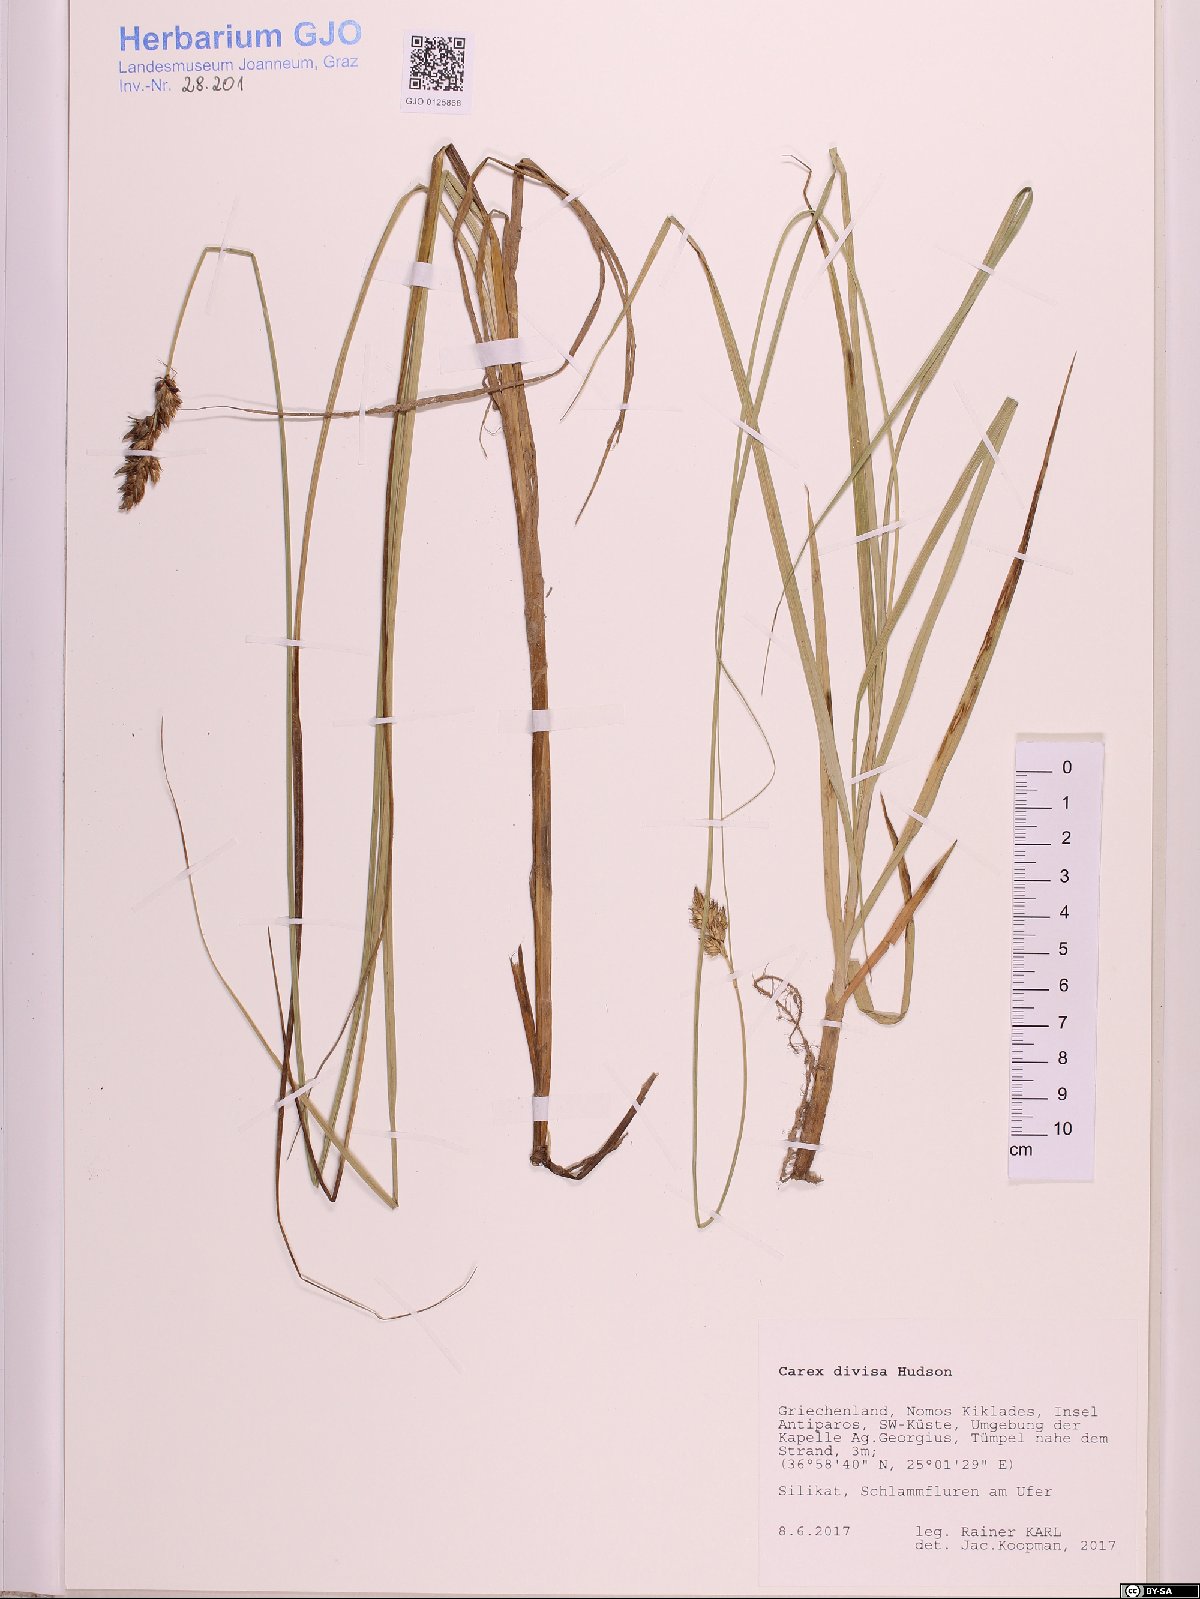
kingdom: Plantae
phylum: Tracheophyta
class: Liliopsida
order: Poales
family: Cyperaceae
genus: Carex
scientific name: Carex divisa
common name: Divided sedge
